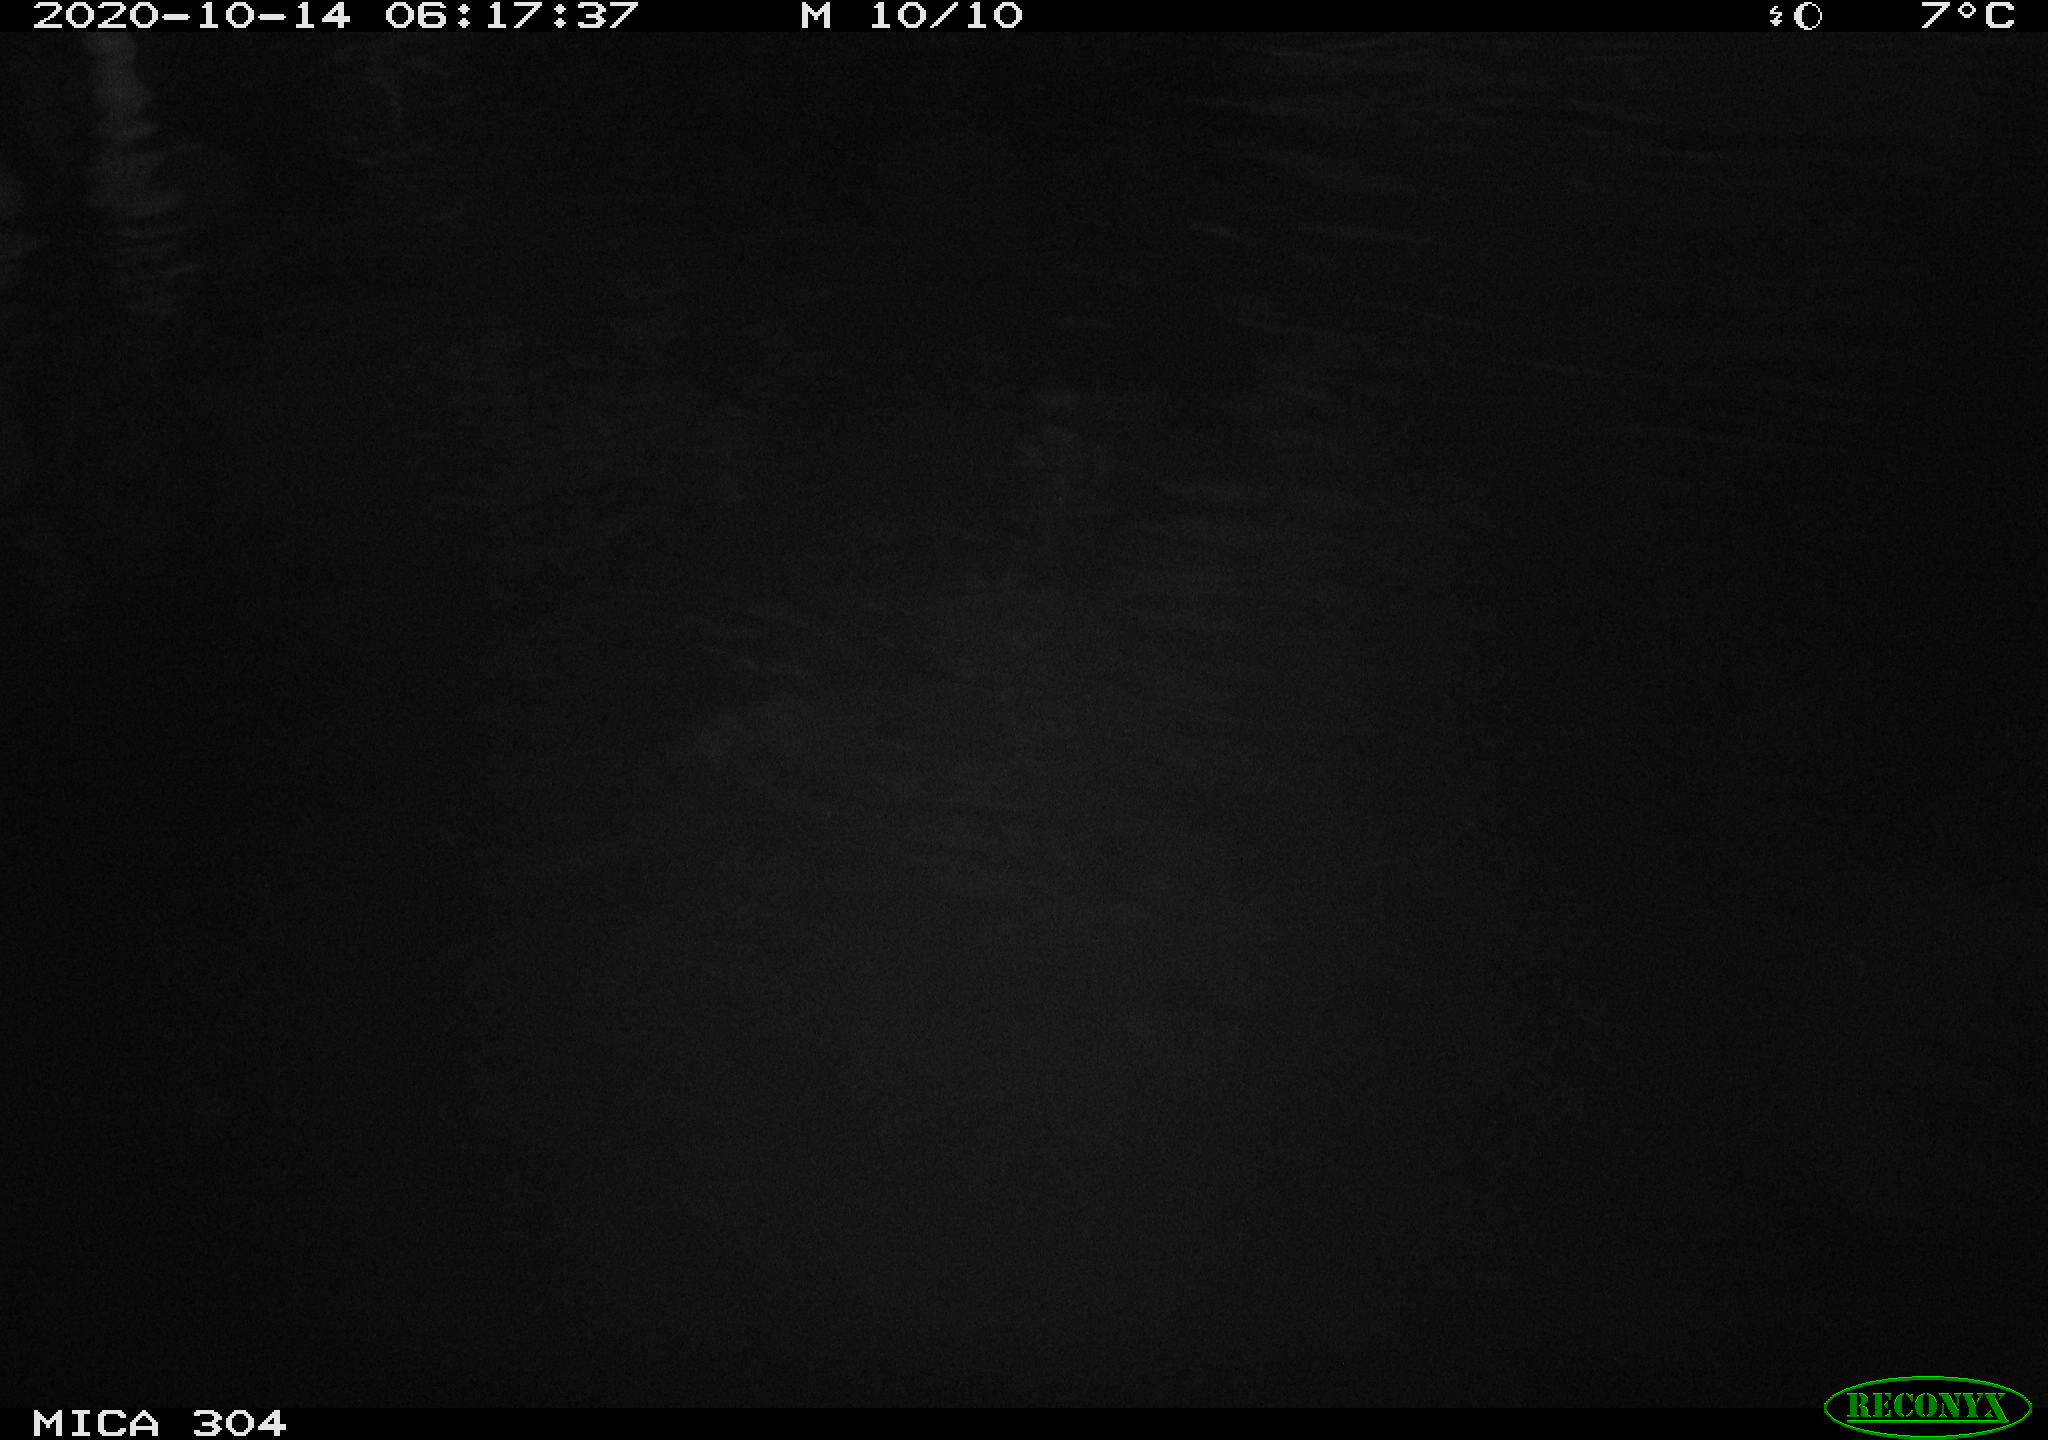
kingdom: Animalia
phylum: Chordata
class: Mammalia
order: Rodentia
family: Muridae
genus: Rattus
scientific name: Rattus norvegicus
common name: Brown rat
